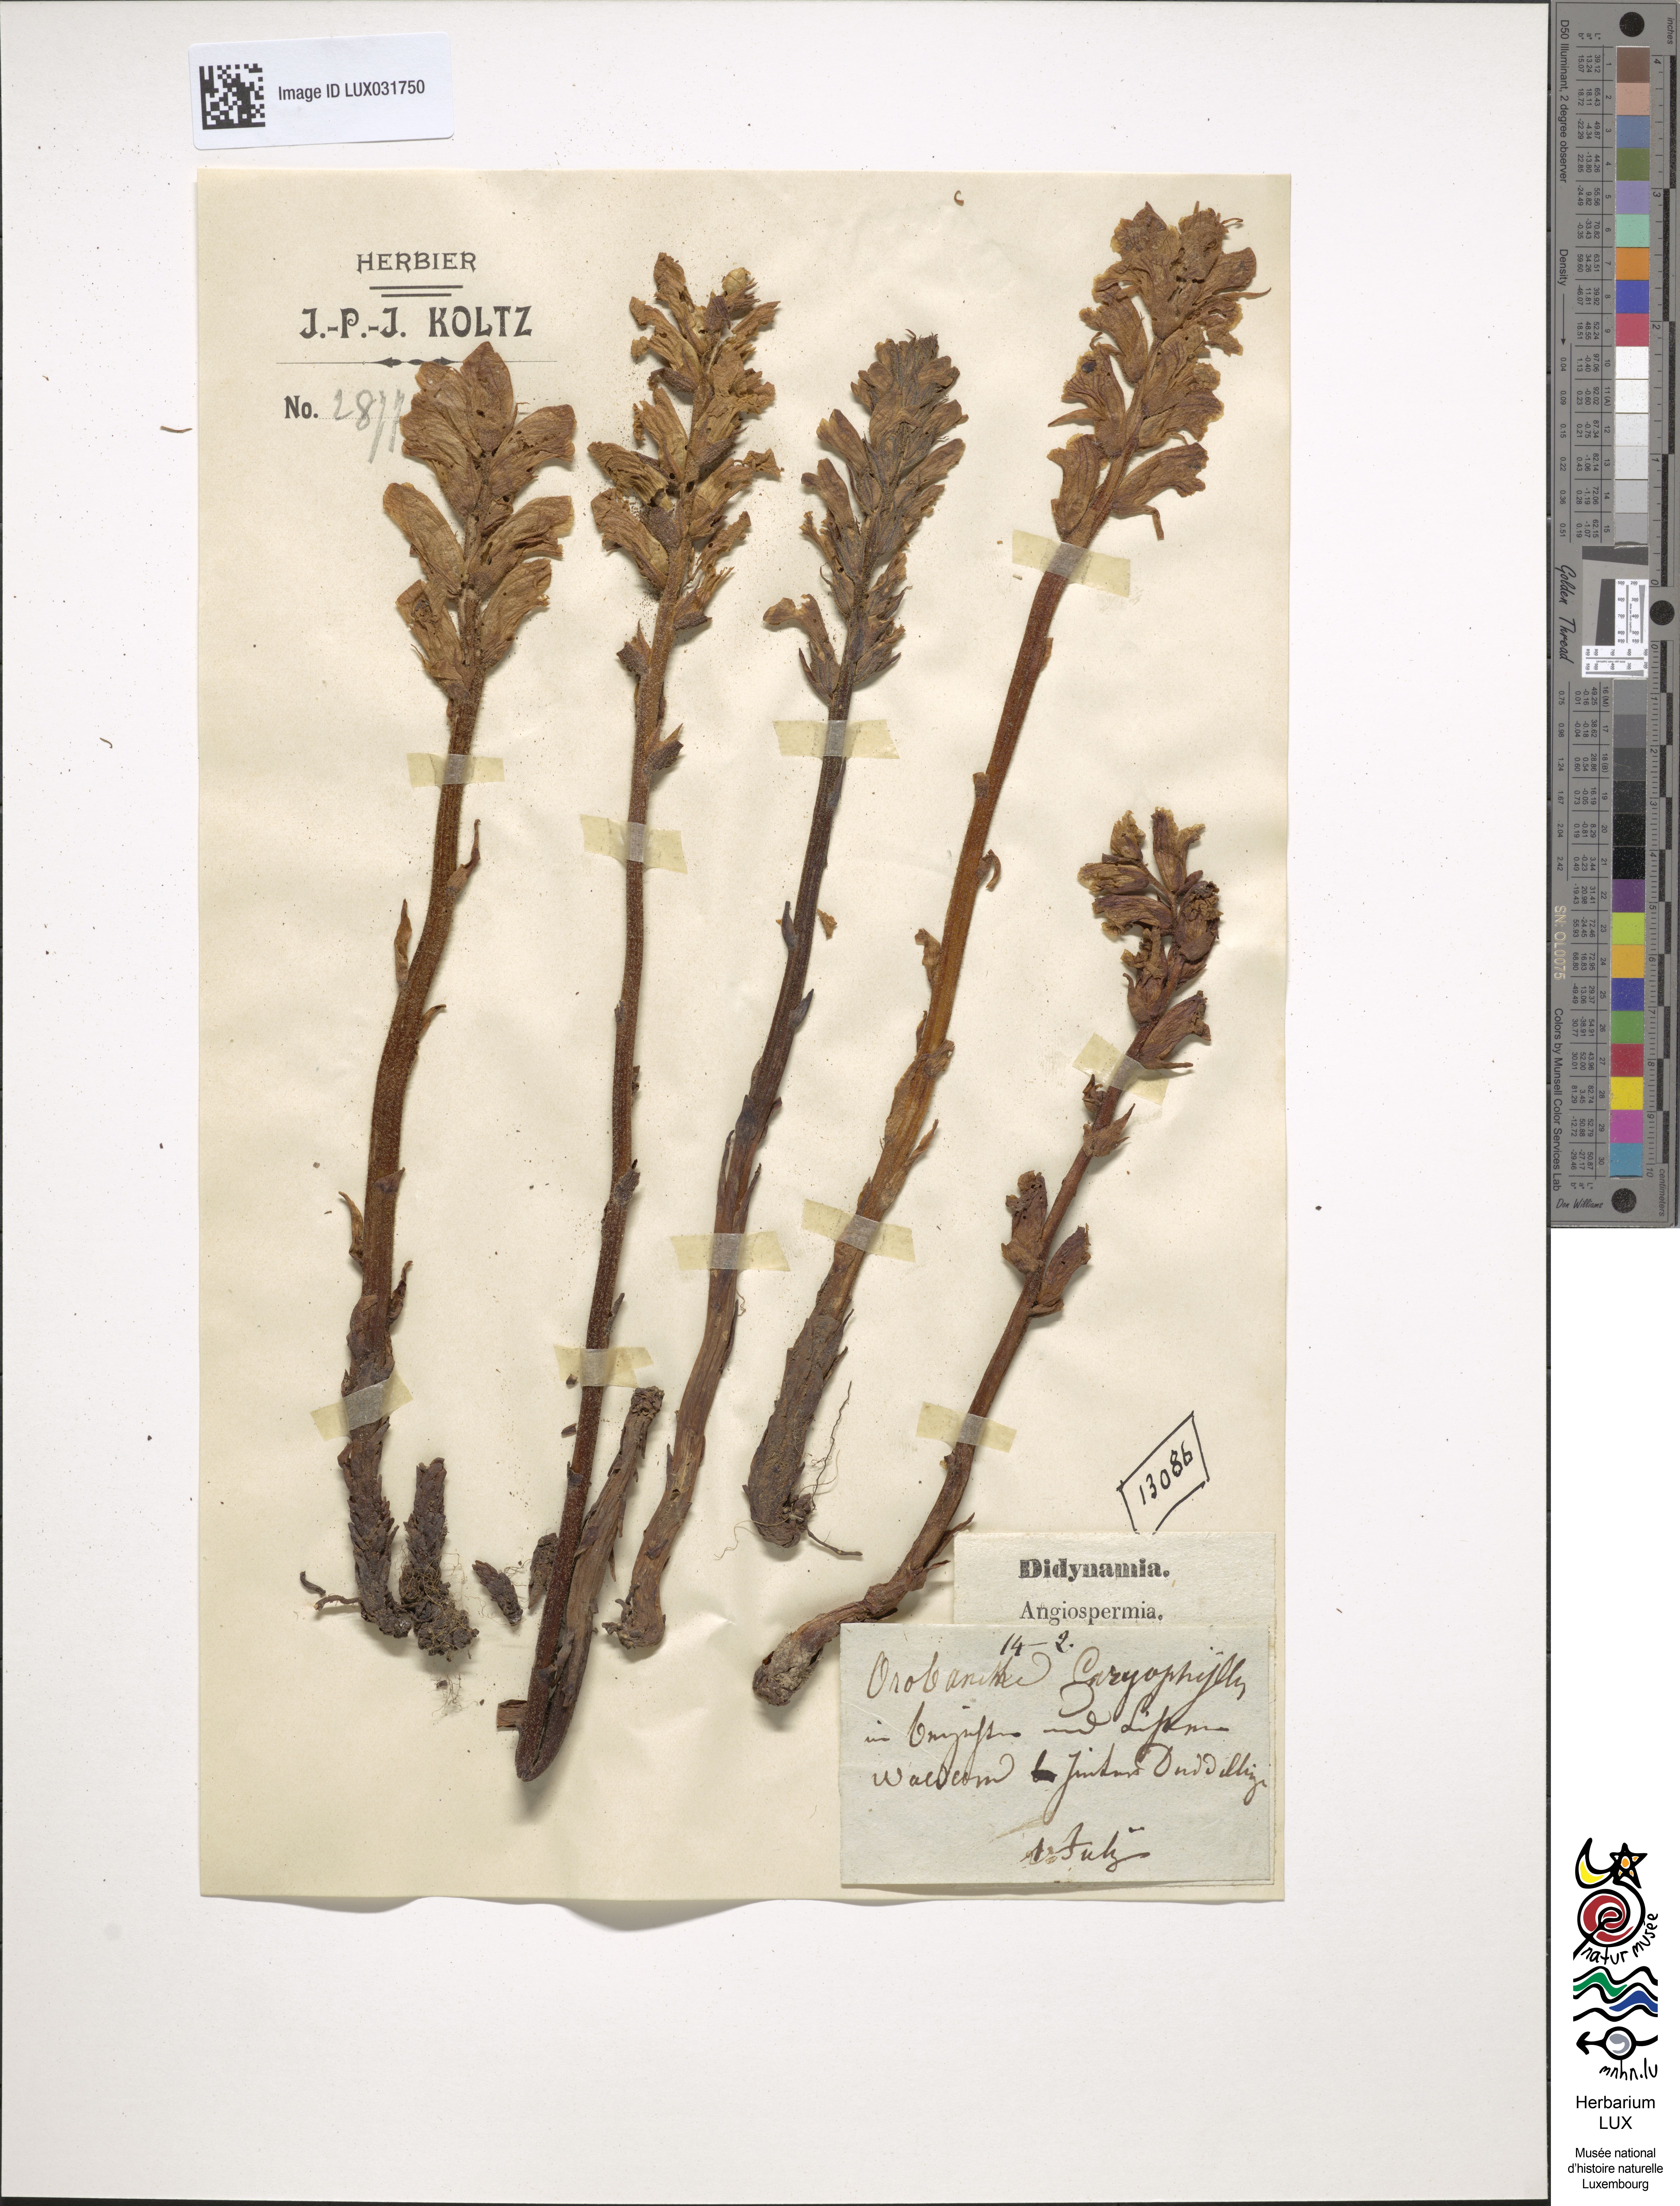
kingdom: Plantae
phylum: Tracheophyta
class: Magnoliopsida
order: Lamiales
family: Orobanchaceae
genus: Orobanche
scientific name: Orobanche caryophyllacea
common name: Bedstraw broomrape
